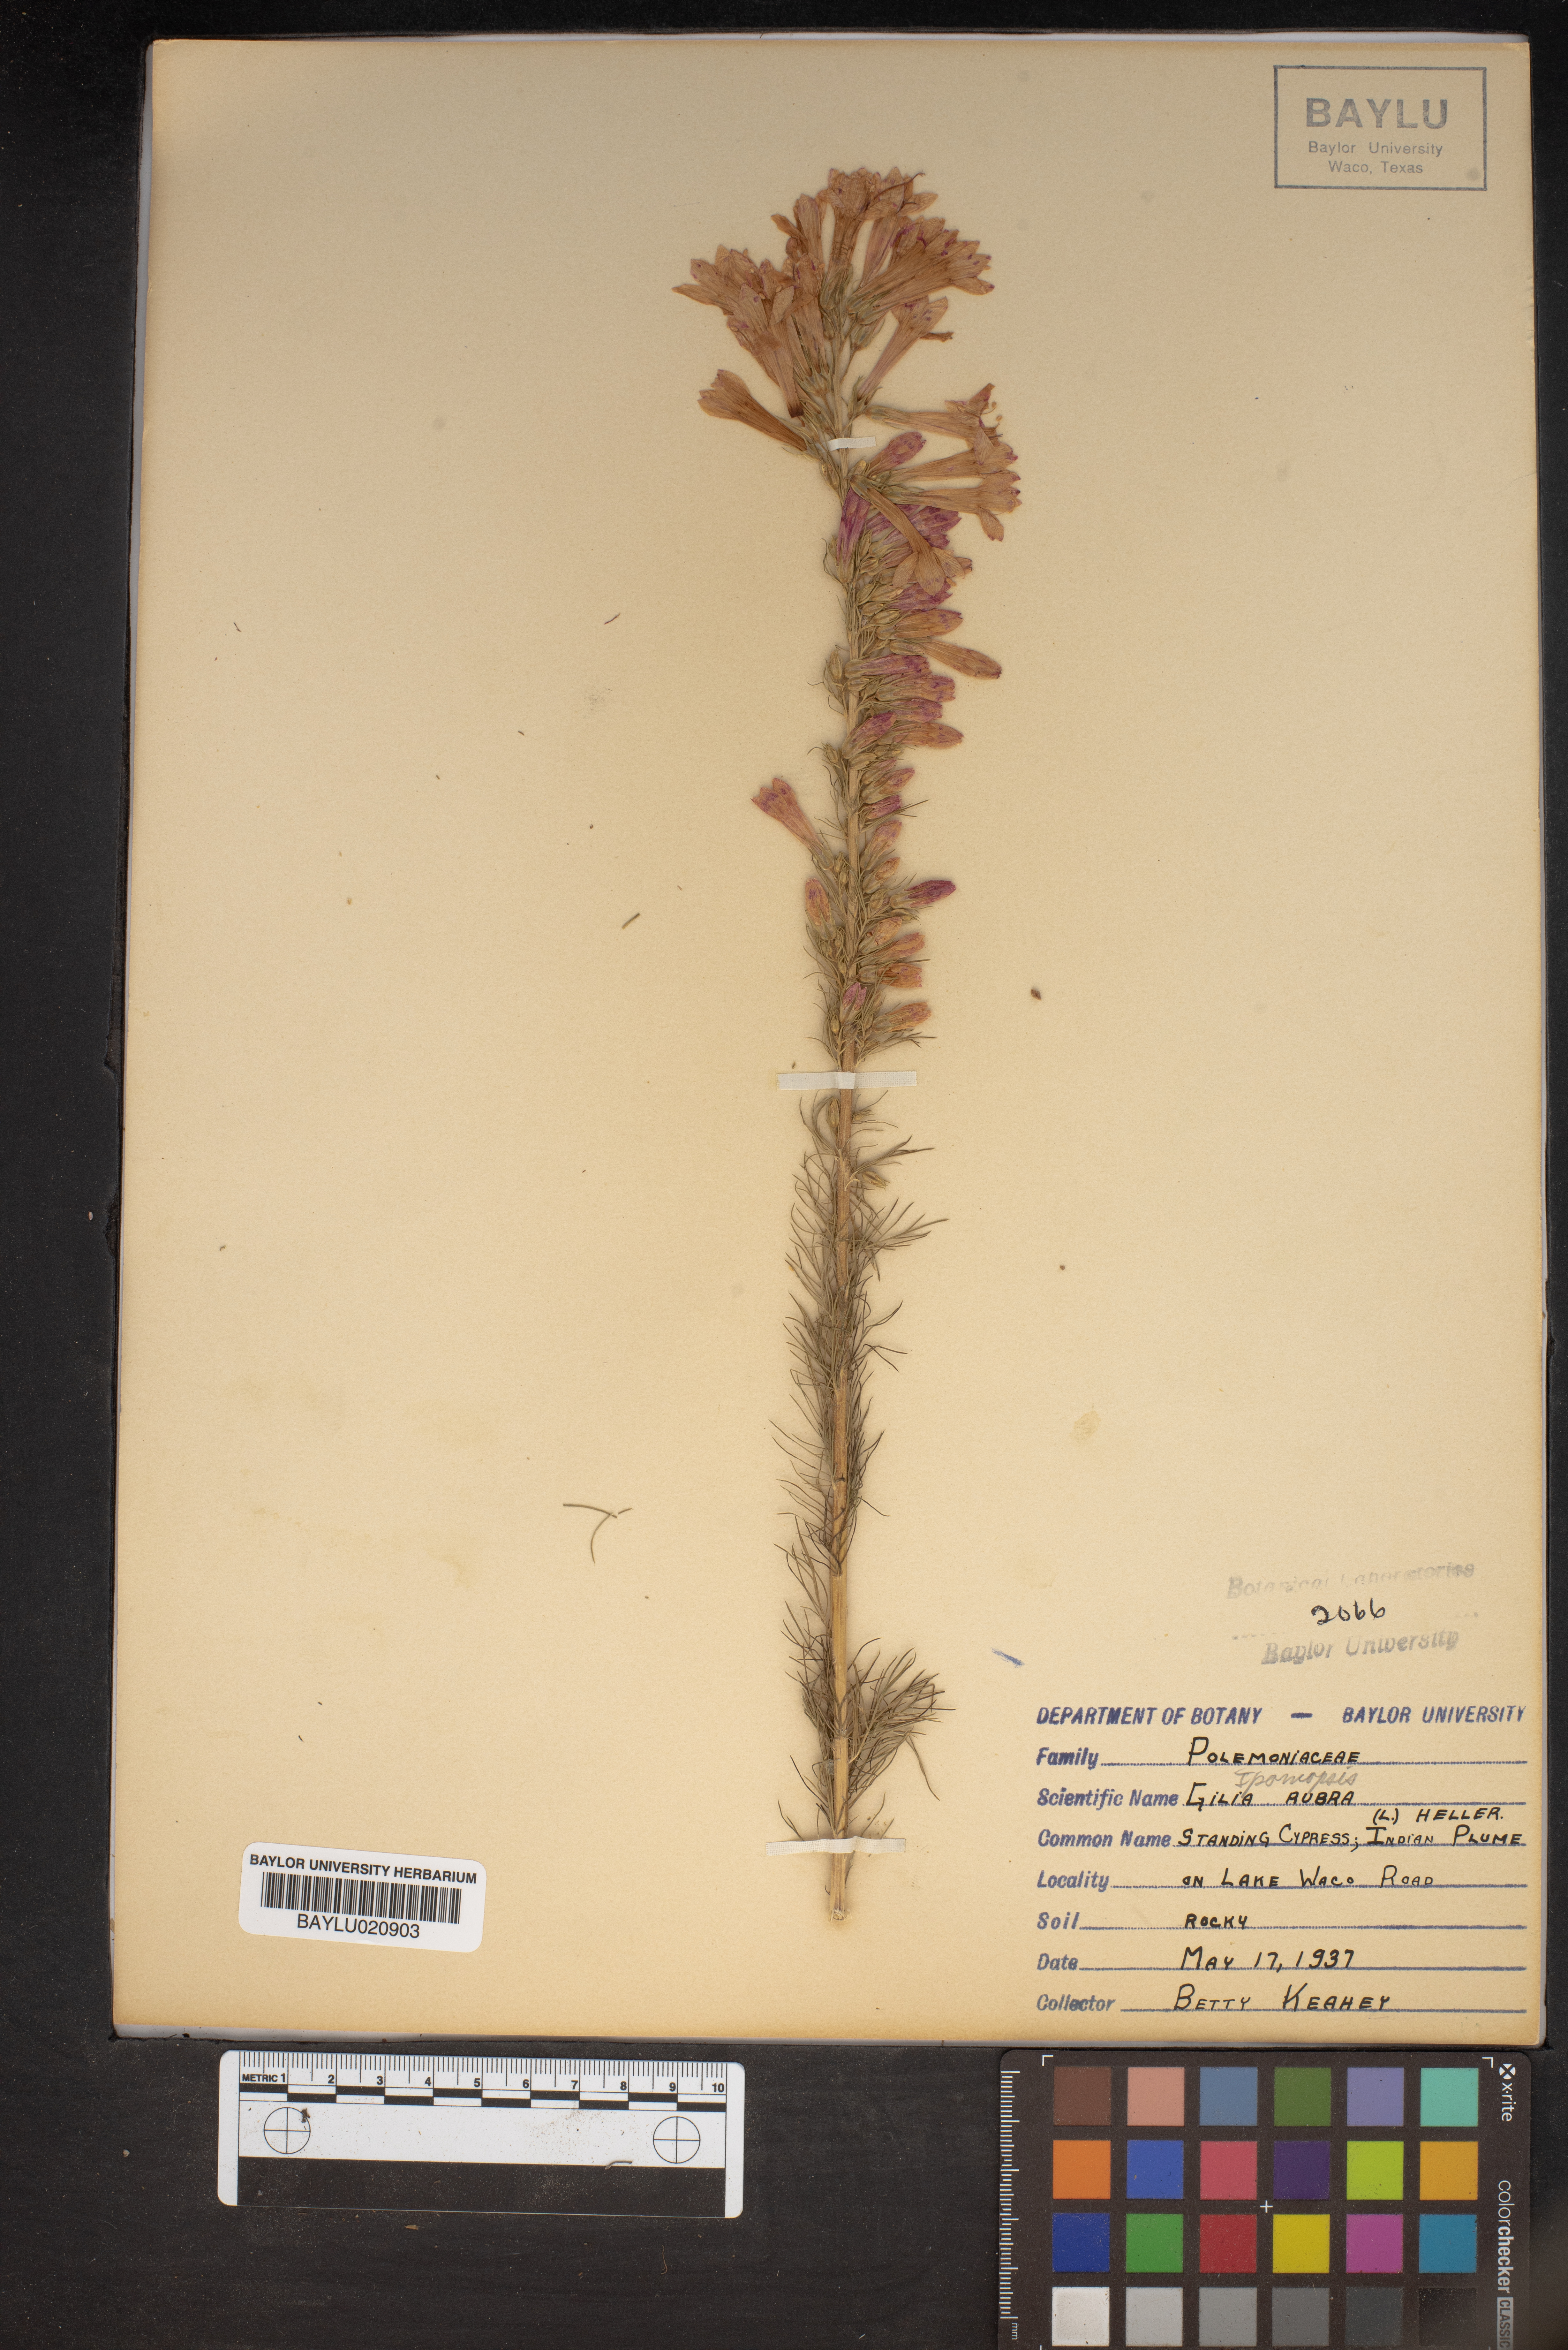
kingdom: Plantae
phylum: Tracheophyta
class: Magnoliopsida
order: Ericales
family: Polemoniaceae
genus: Ipomopsis
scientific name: Ipomopsis rubra
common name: Skyrocket
